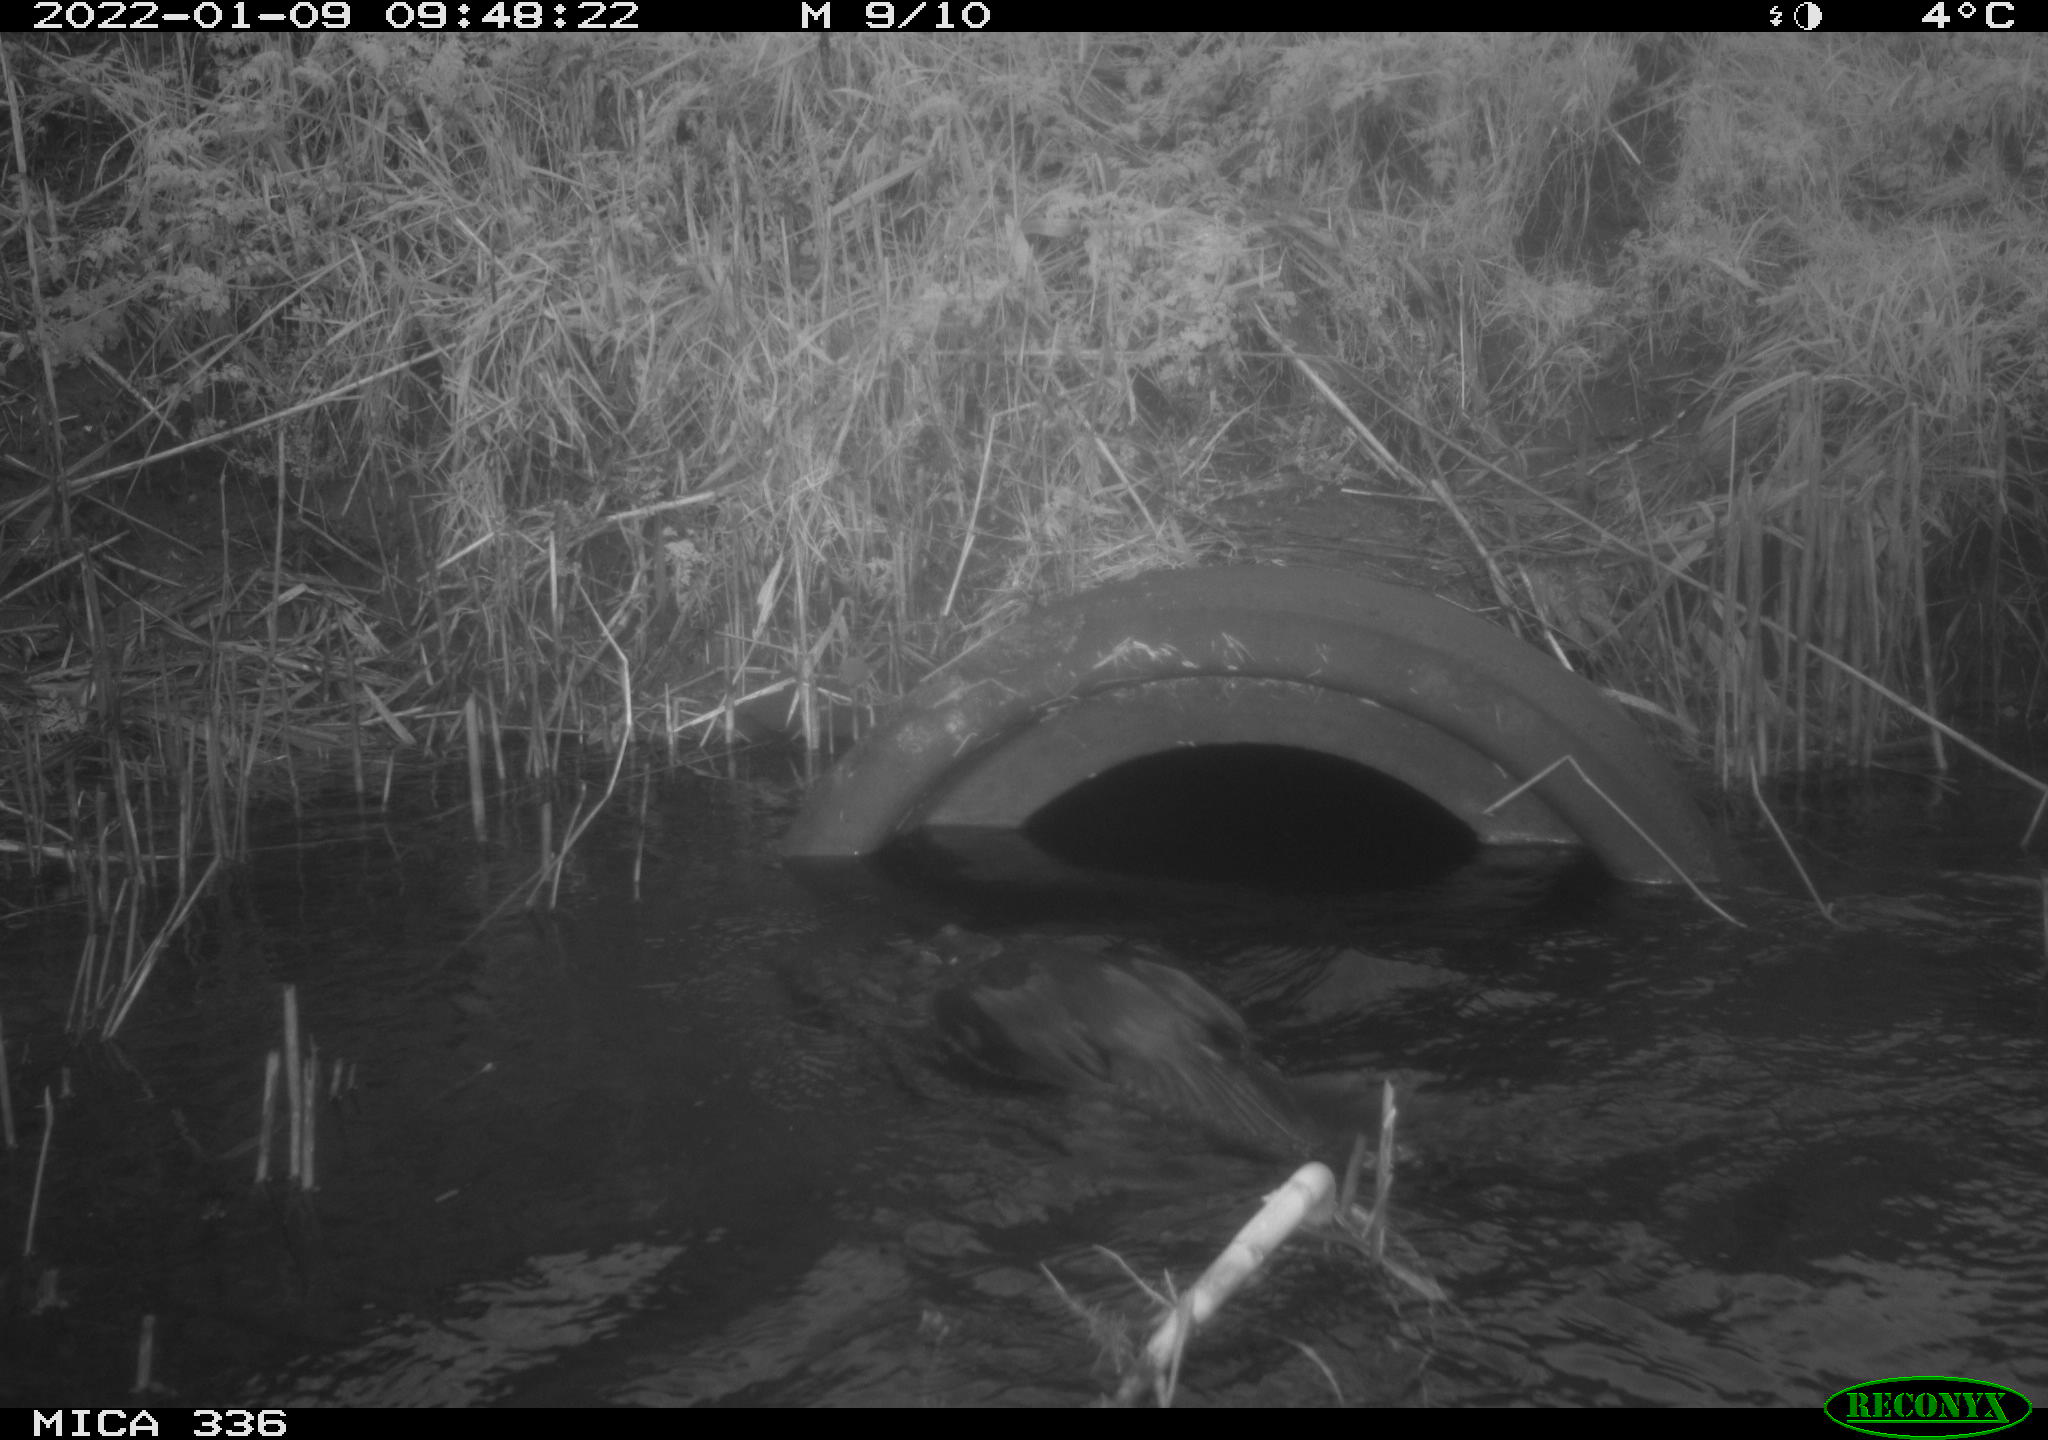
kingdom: Animalia
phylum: Chordata
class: Aves
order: Suliformes
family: Phalacrocoracidae
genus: Phalacrocorax
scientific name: Phalacrocorax carbo
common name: Great cormorant
